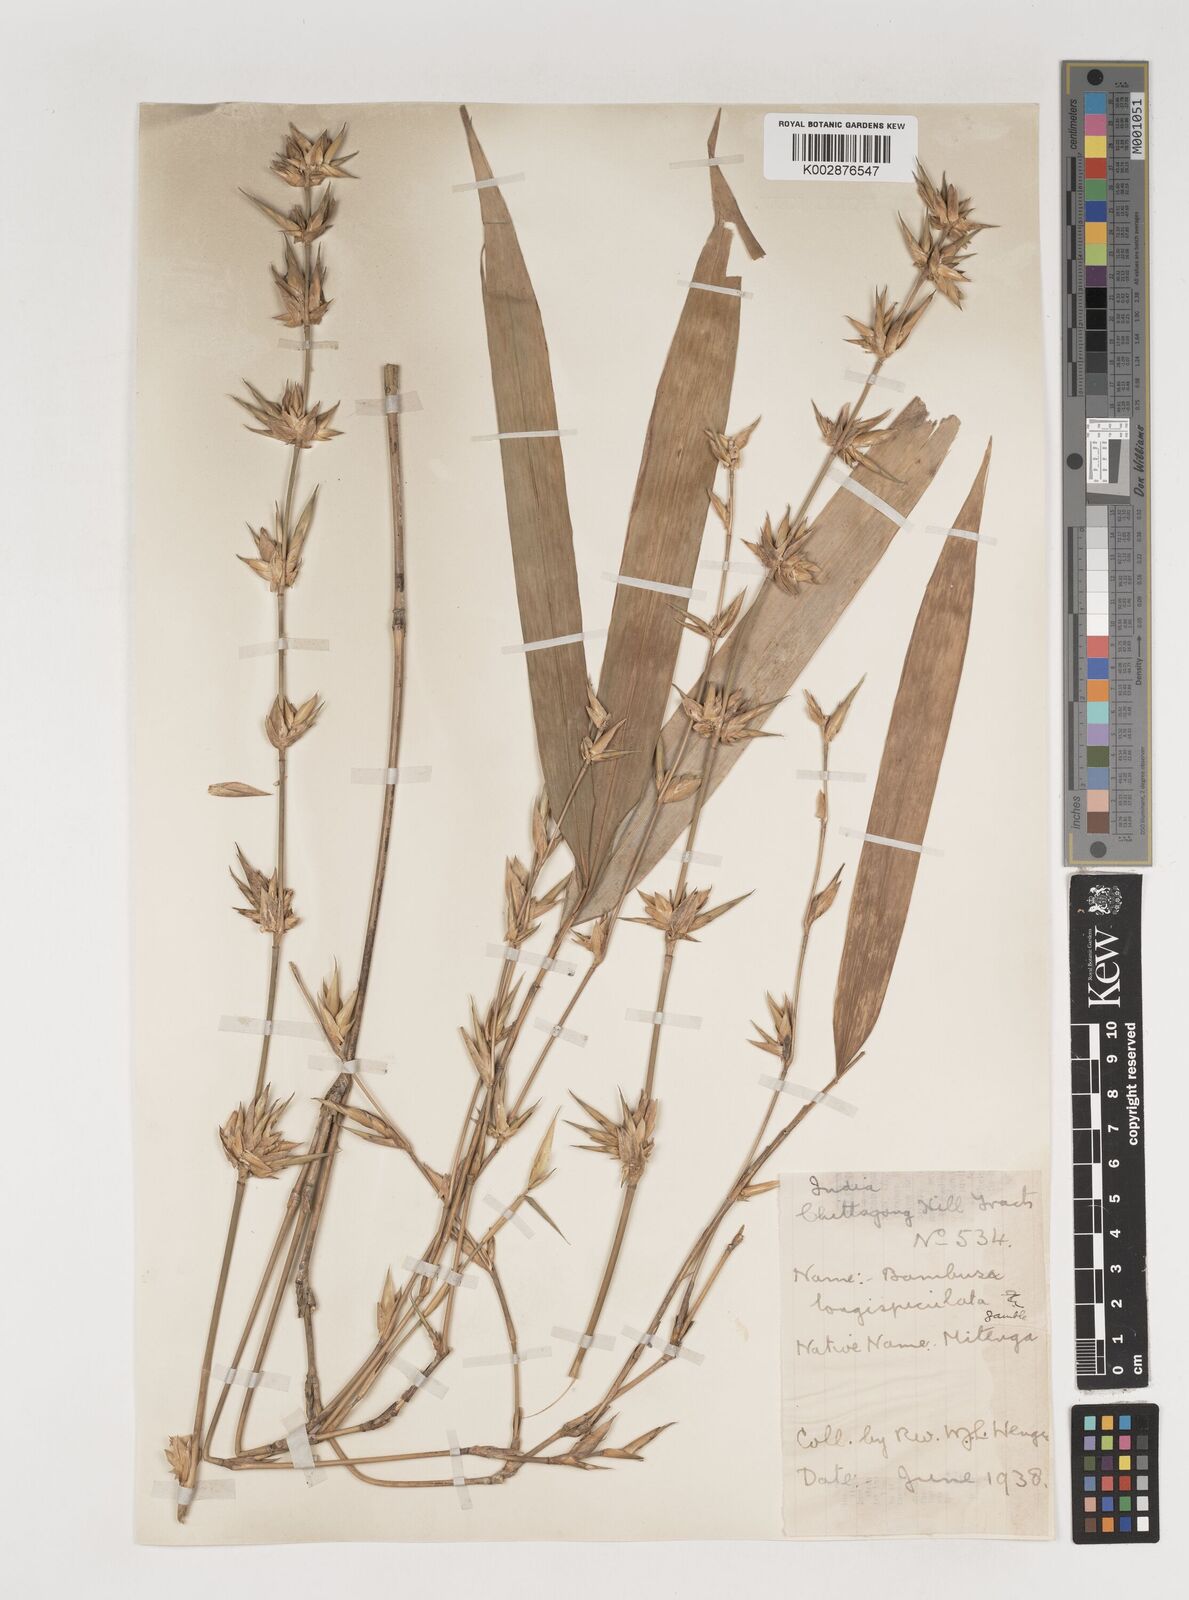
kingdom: Plantae
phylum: Tracheophyta
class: Liliopsida
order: Poales
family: Poaceae
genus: Bambusa
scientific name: Bambusa longispiculata
